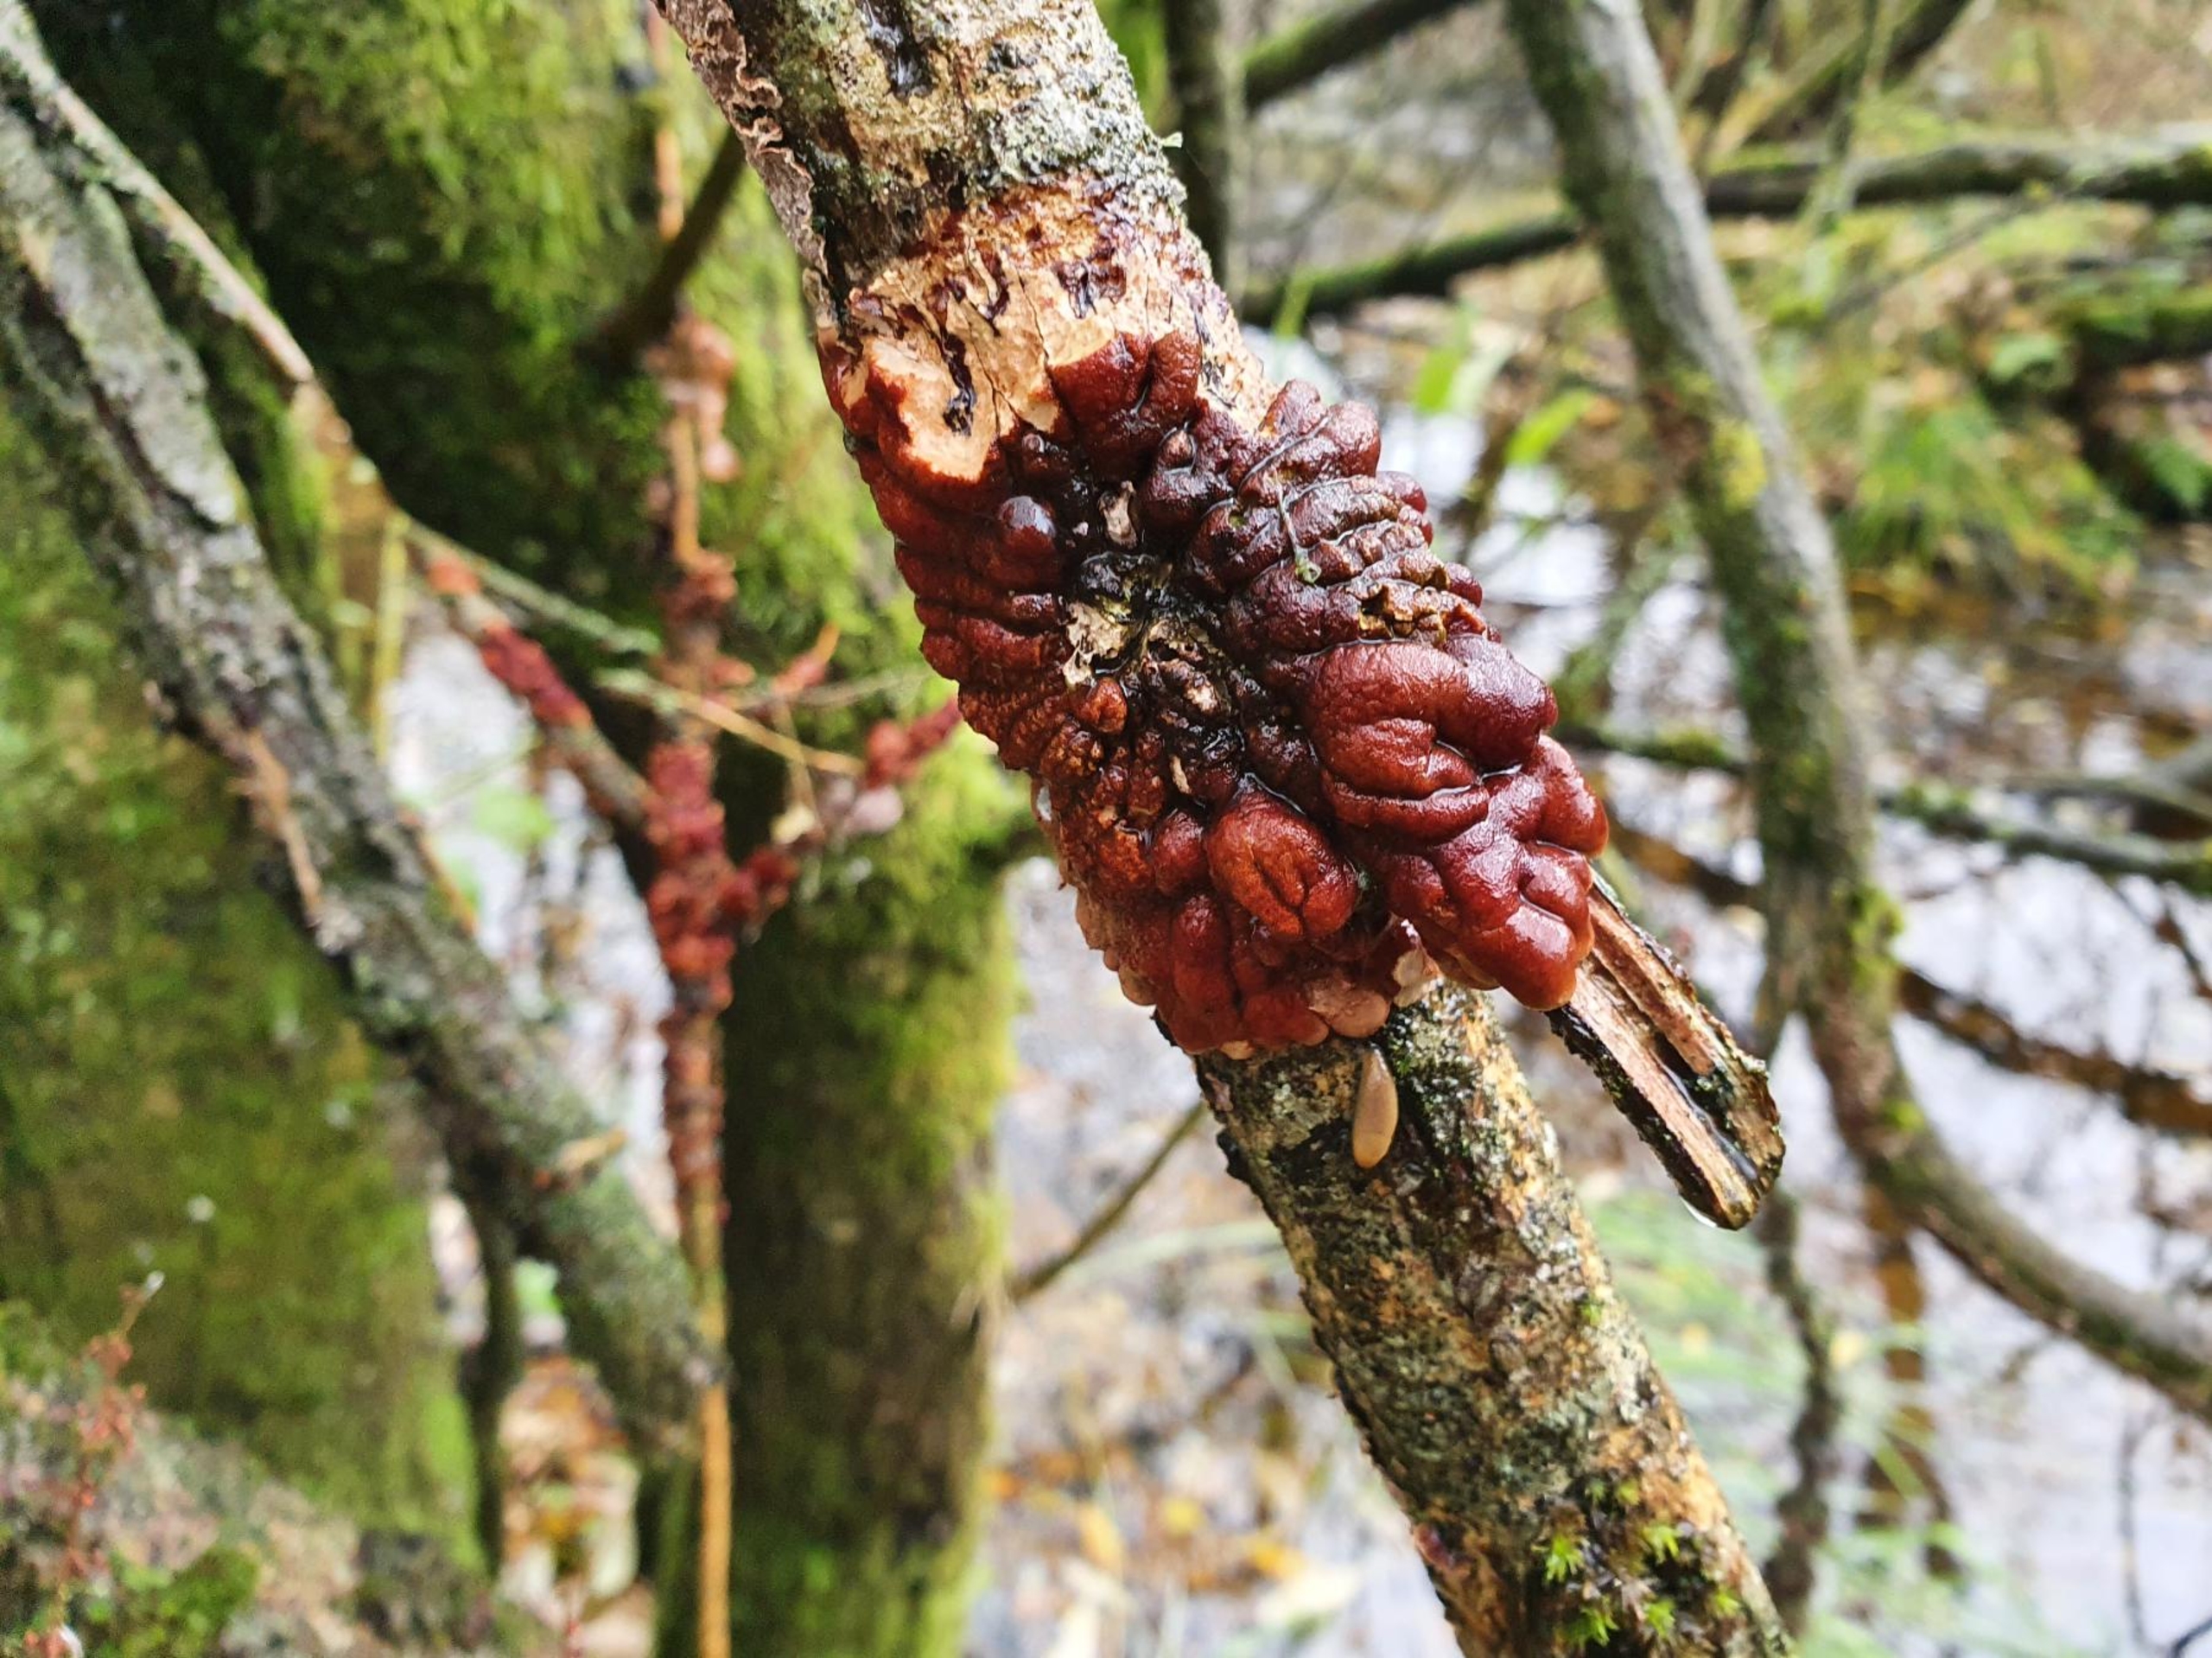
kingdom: Fungi
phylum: Ascomycota
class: Sordariomycetes
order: Hypocreales
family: Hypocreaceae
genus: Hypocreopsis
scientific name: Hypocreopsis lichenoides
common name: Pilfinger
